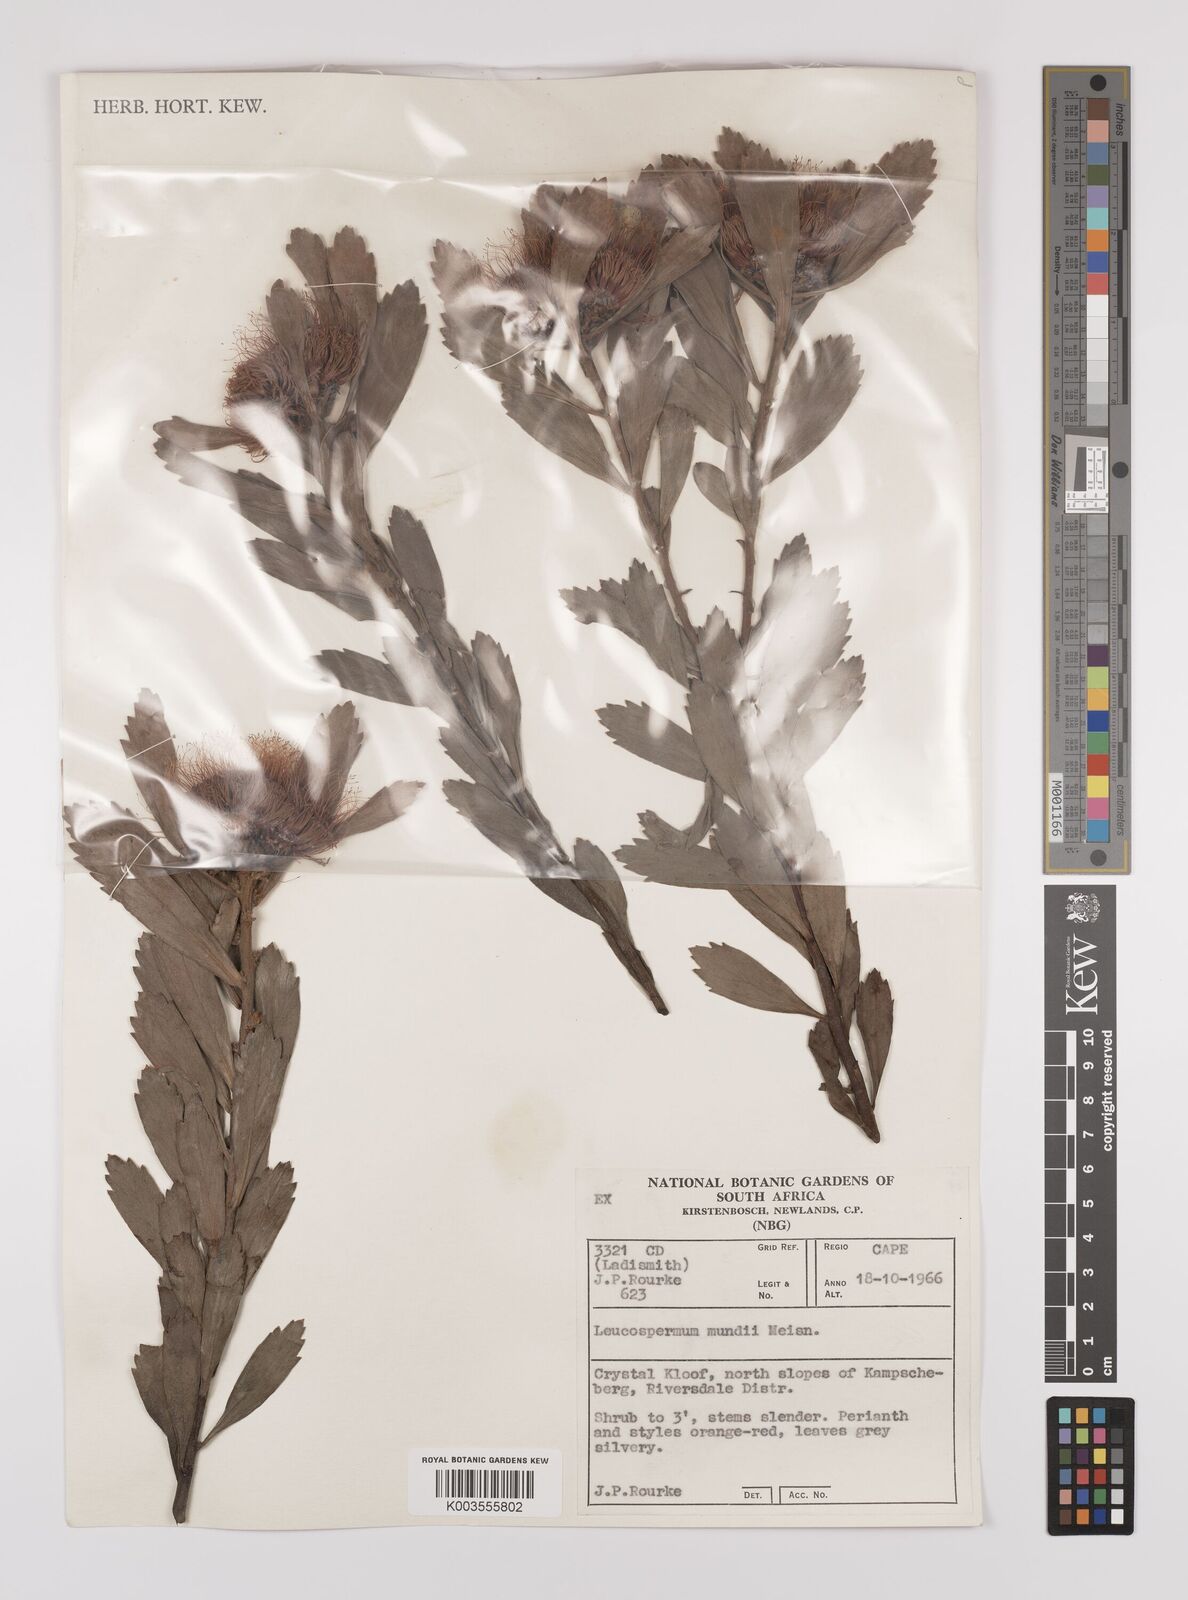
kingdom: Plantae
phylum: Tracheophyta
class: Magnoliopsida
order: Proteales
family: Proteaceae
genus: Leucospermum
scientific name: Leucospermum mundii
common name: Langeberg pincushion
